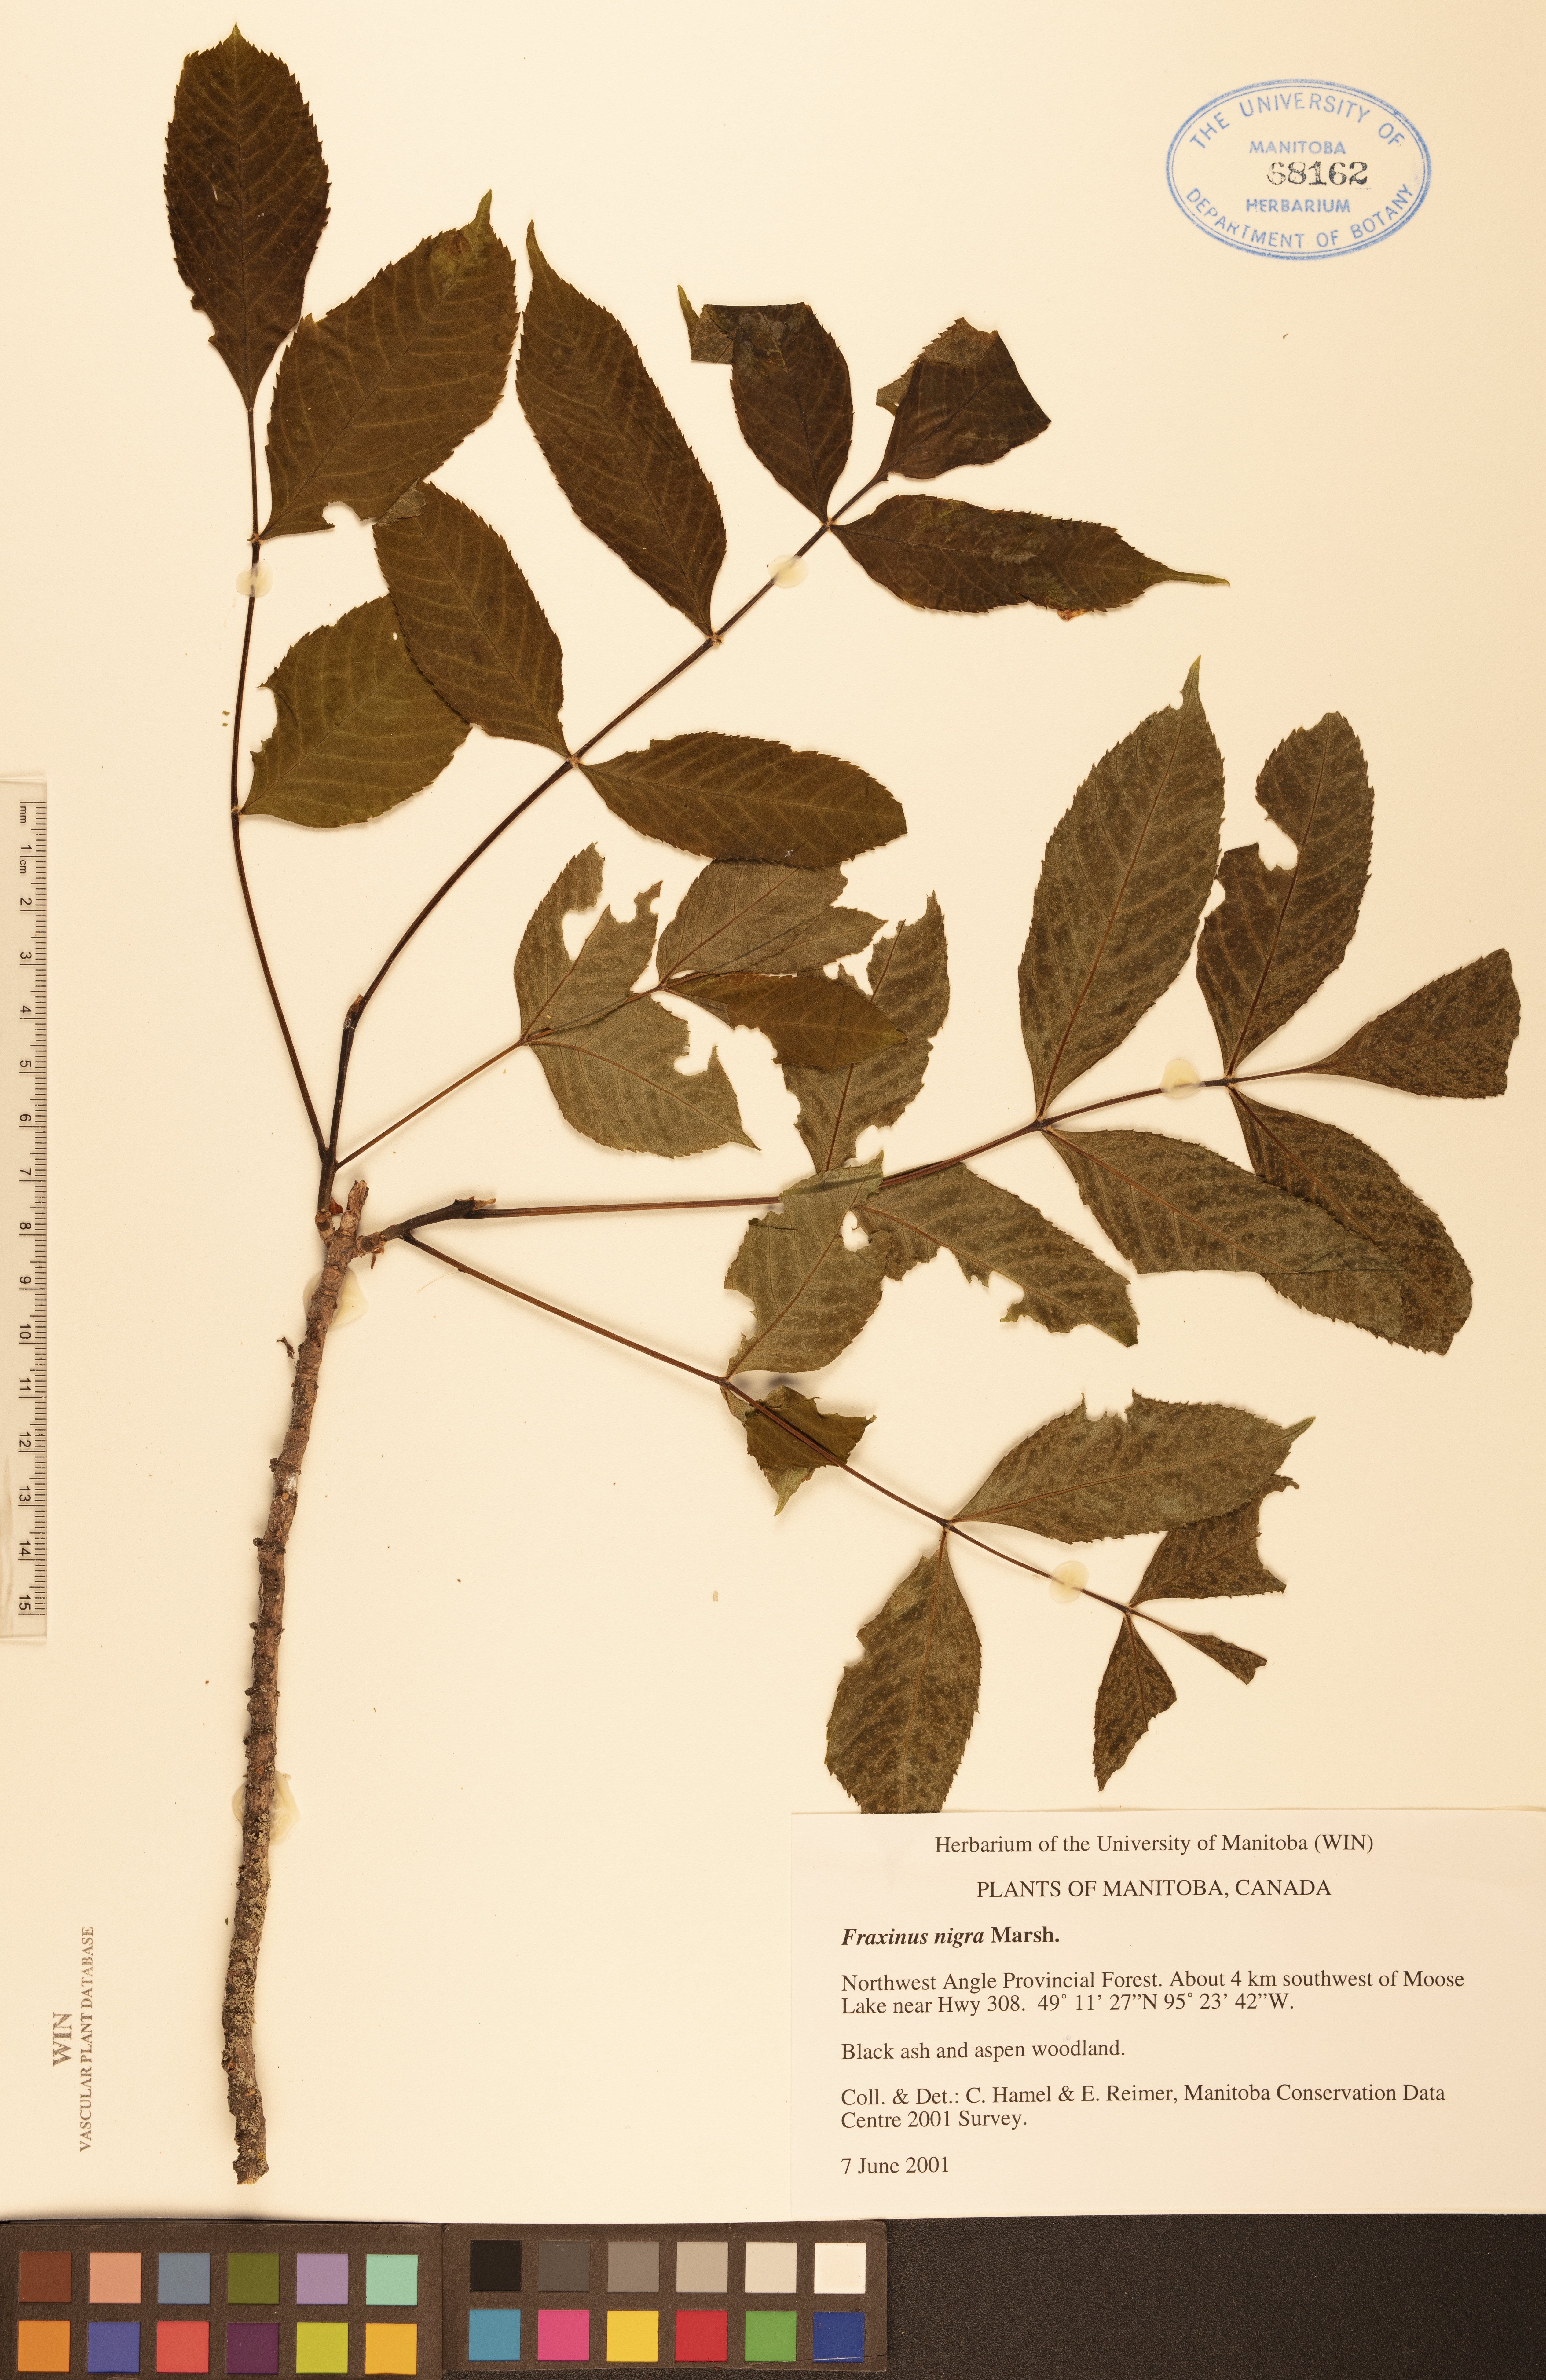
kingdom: Plantae
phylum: Tracheophyta
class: Magnoliopsida
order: Lamiales
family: Oleaceae
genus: Fraxinus
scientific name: Fraxinus nigra
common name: Black ash
